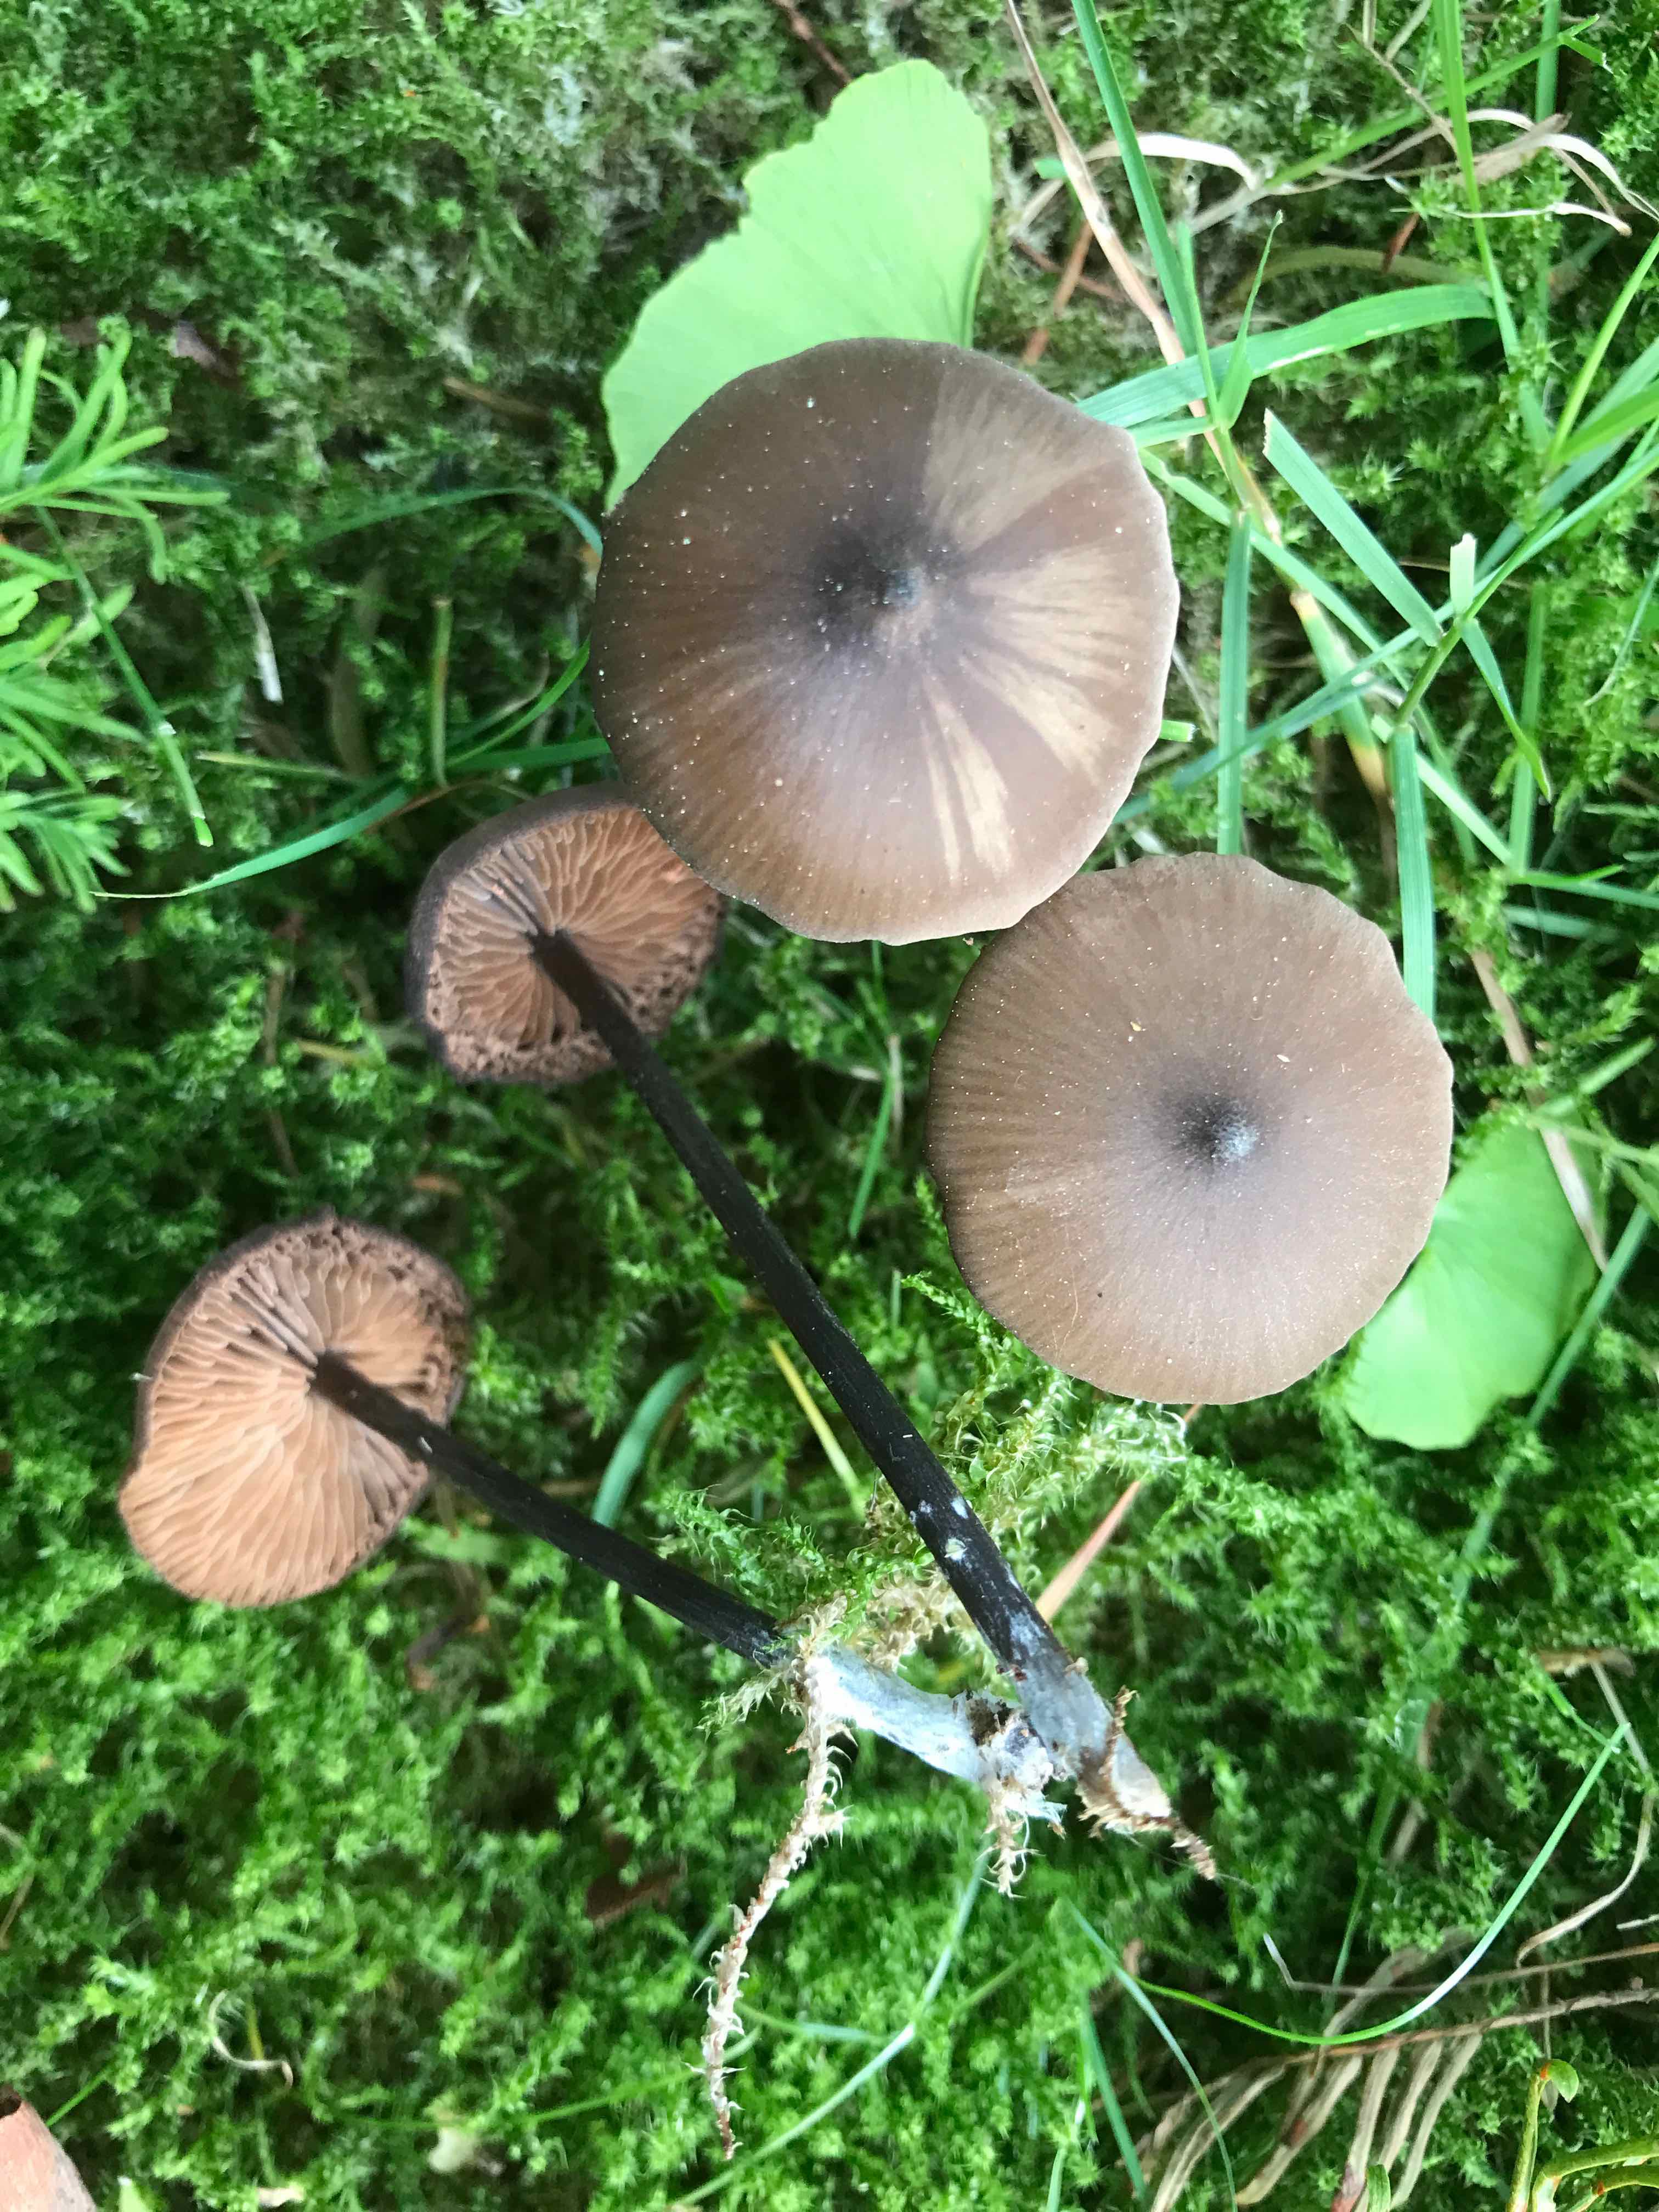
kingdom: Fungi
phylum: Basidiomycota
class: Agaricomycetes
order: Agaricales
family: Entolomataceae
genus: Entoloma
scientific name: Entoloma hebes
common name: krat-rødblad
